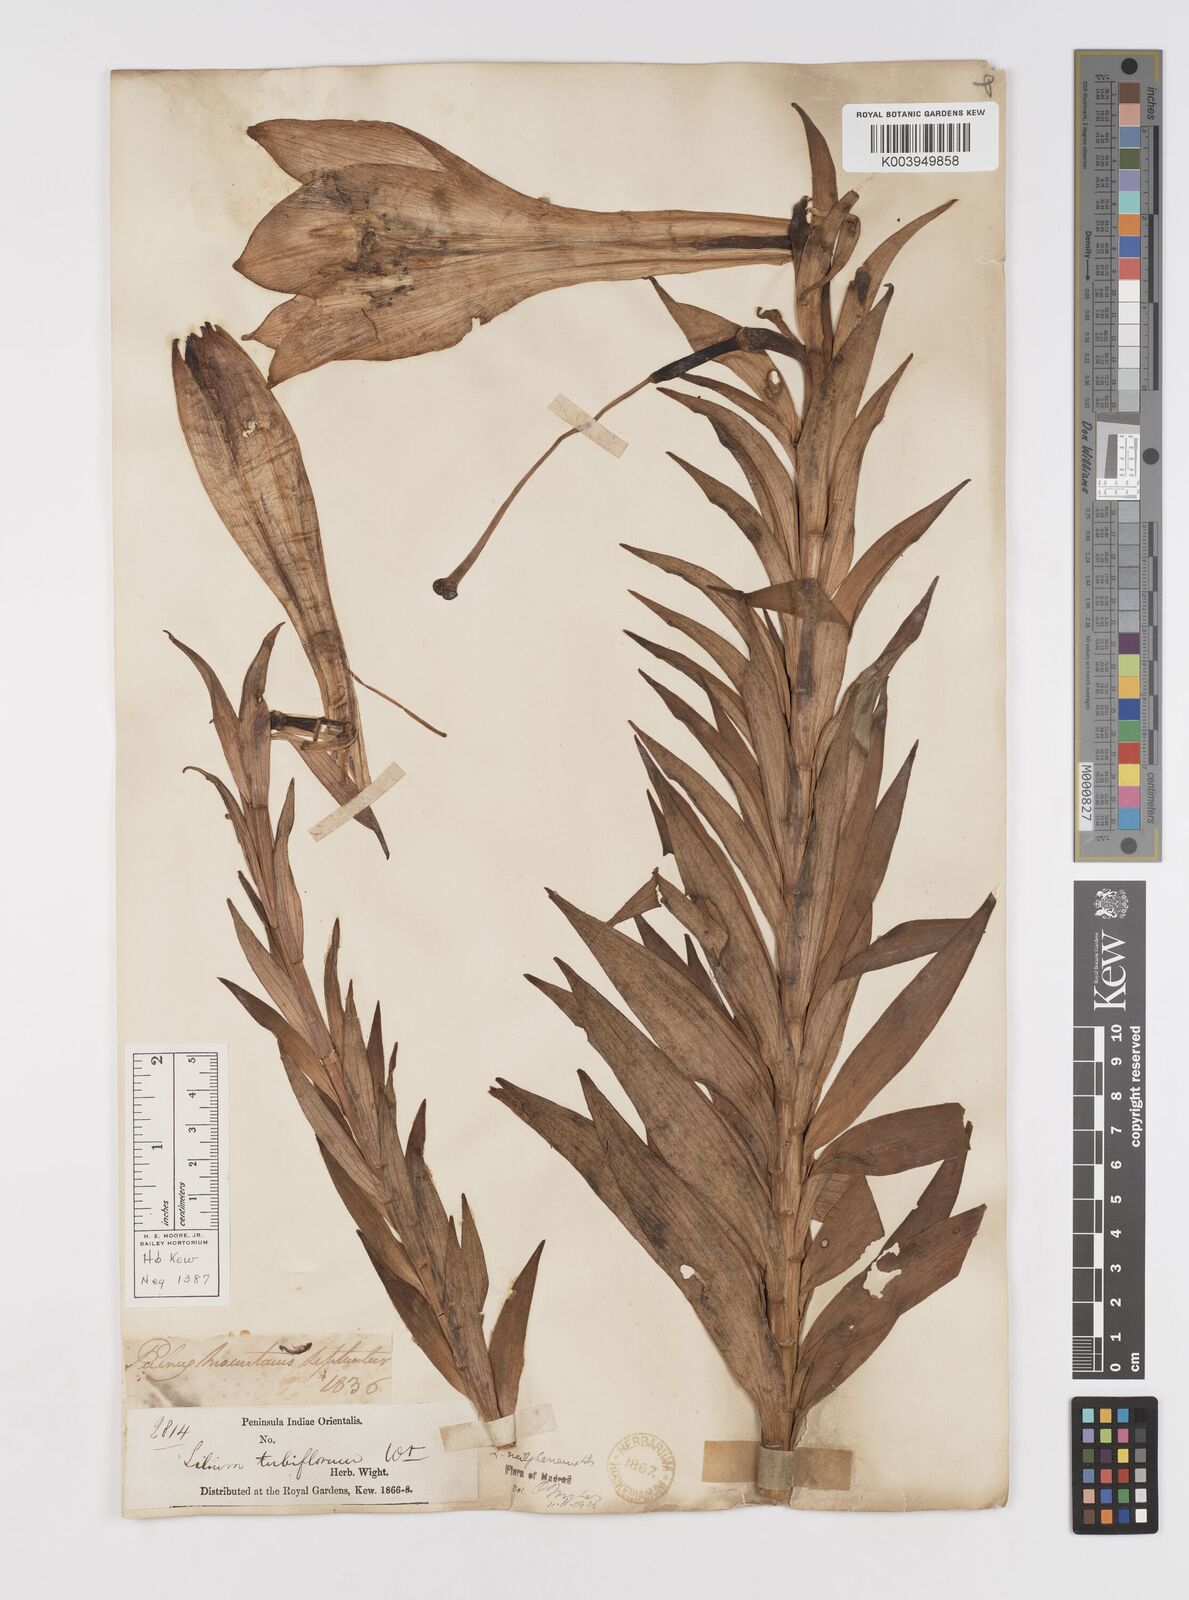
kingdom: Plantae
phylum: Tracheophyta
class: Liliopsida
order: Liliales
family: Liliaceae
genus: Lilium
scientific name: Lilium wallichianum
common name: Wallich's lily
